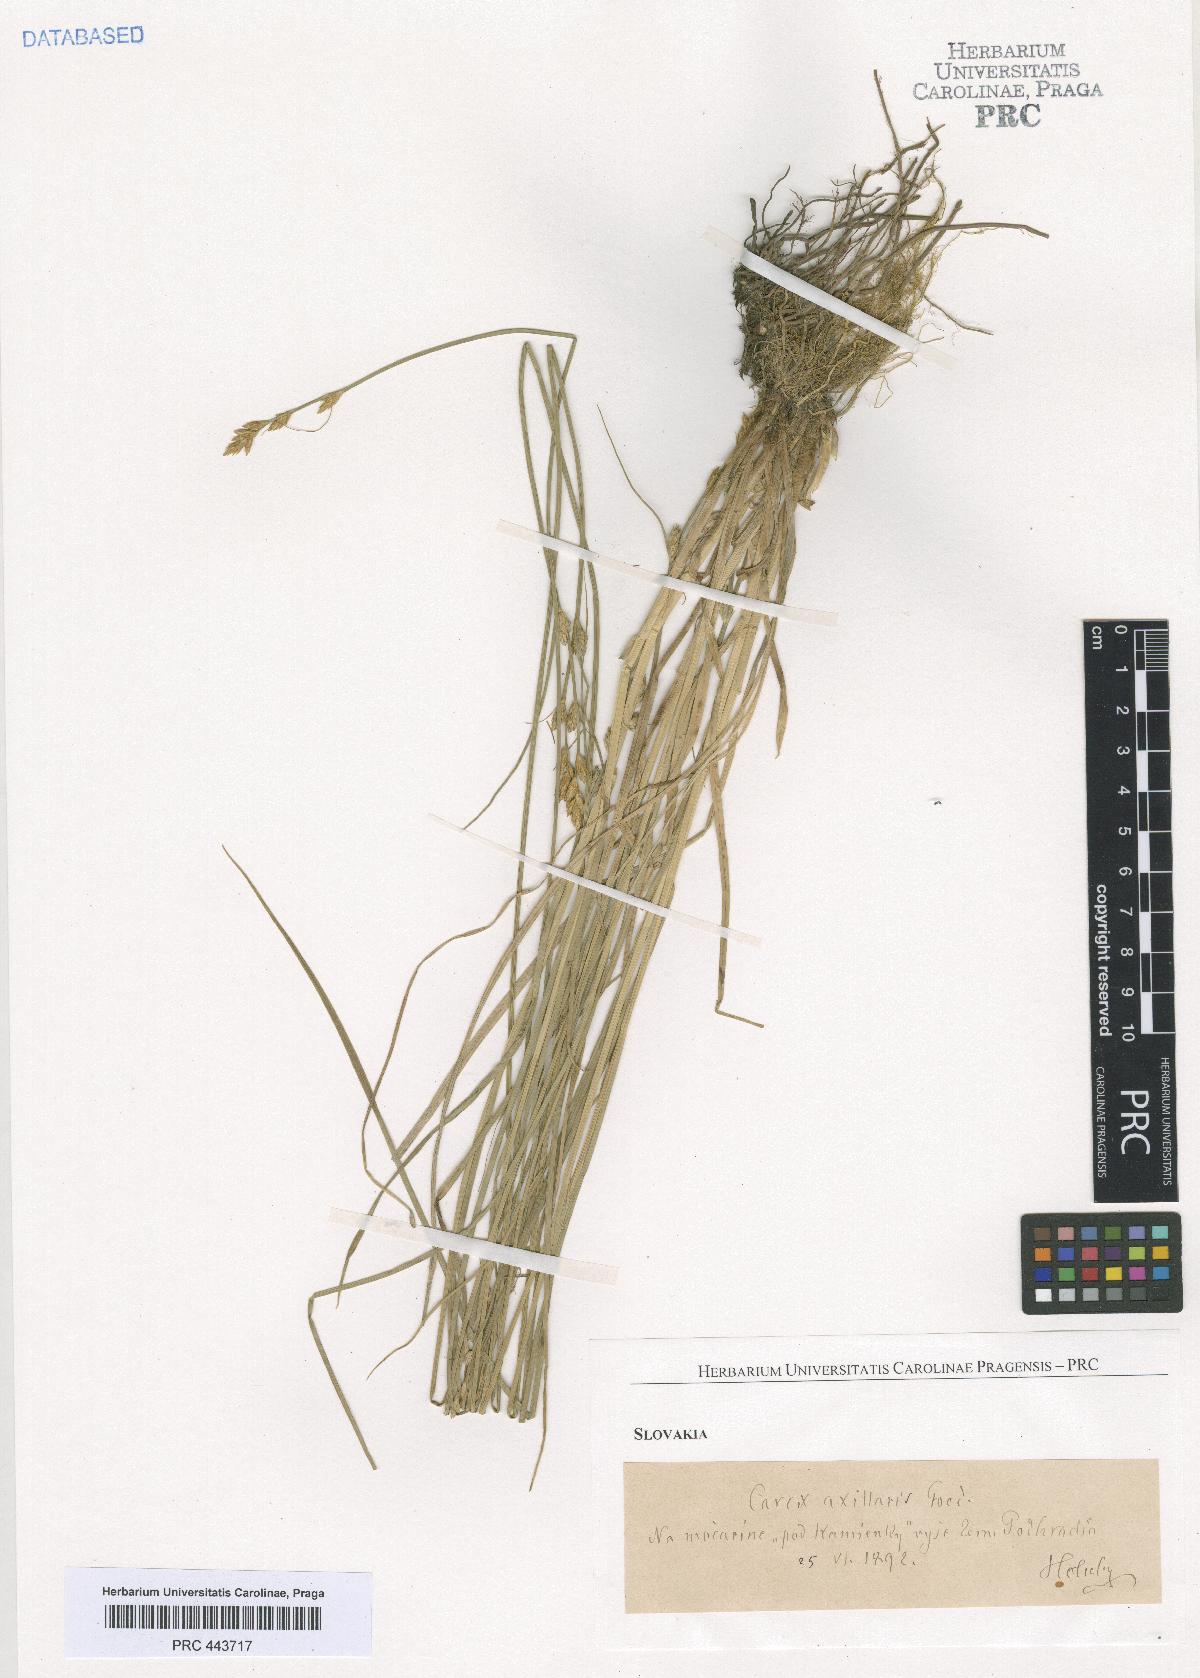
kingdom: Plantae
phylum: Tracheophyta
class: Liliopsida
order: Poales
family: Cyperaceae
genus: Carex
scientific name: Carex pseudoaxillaris
